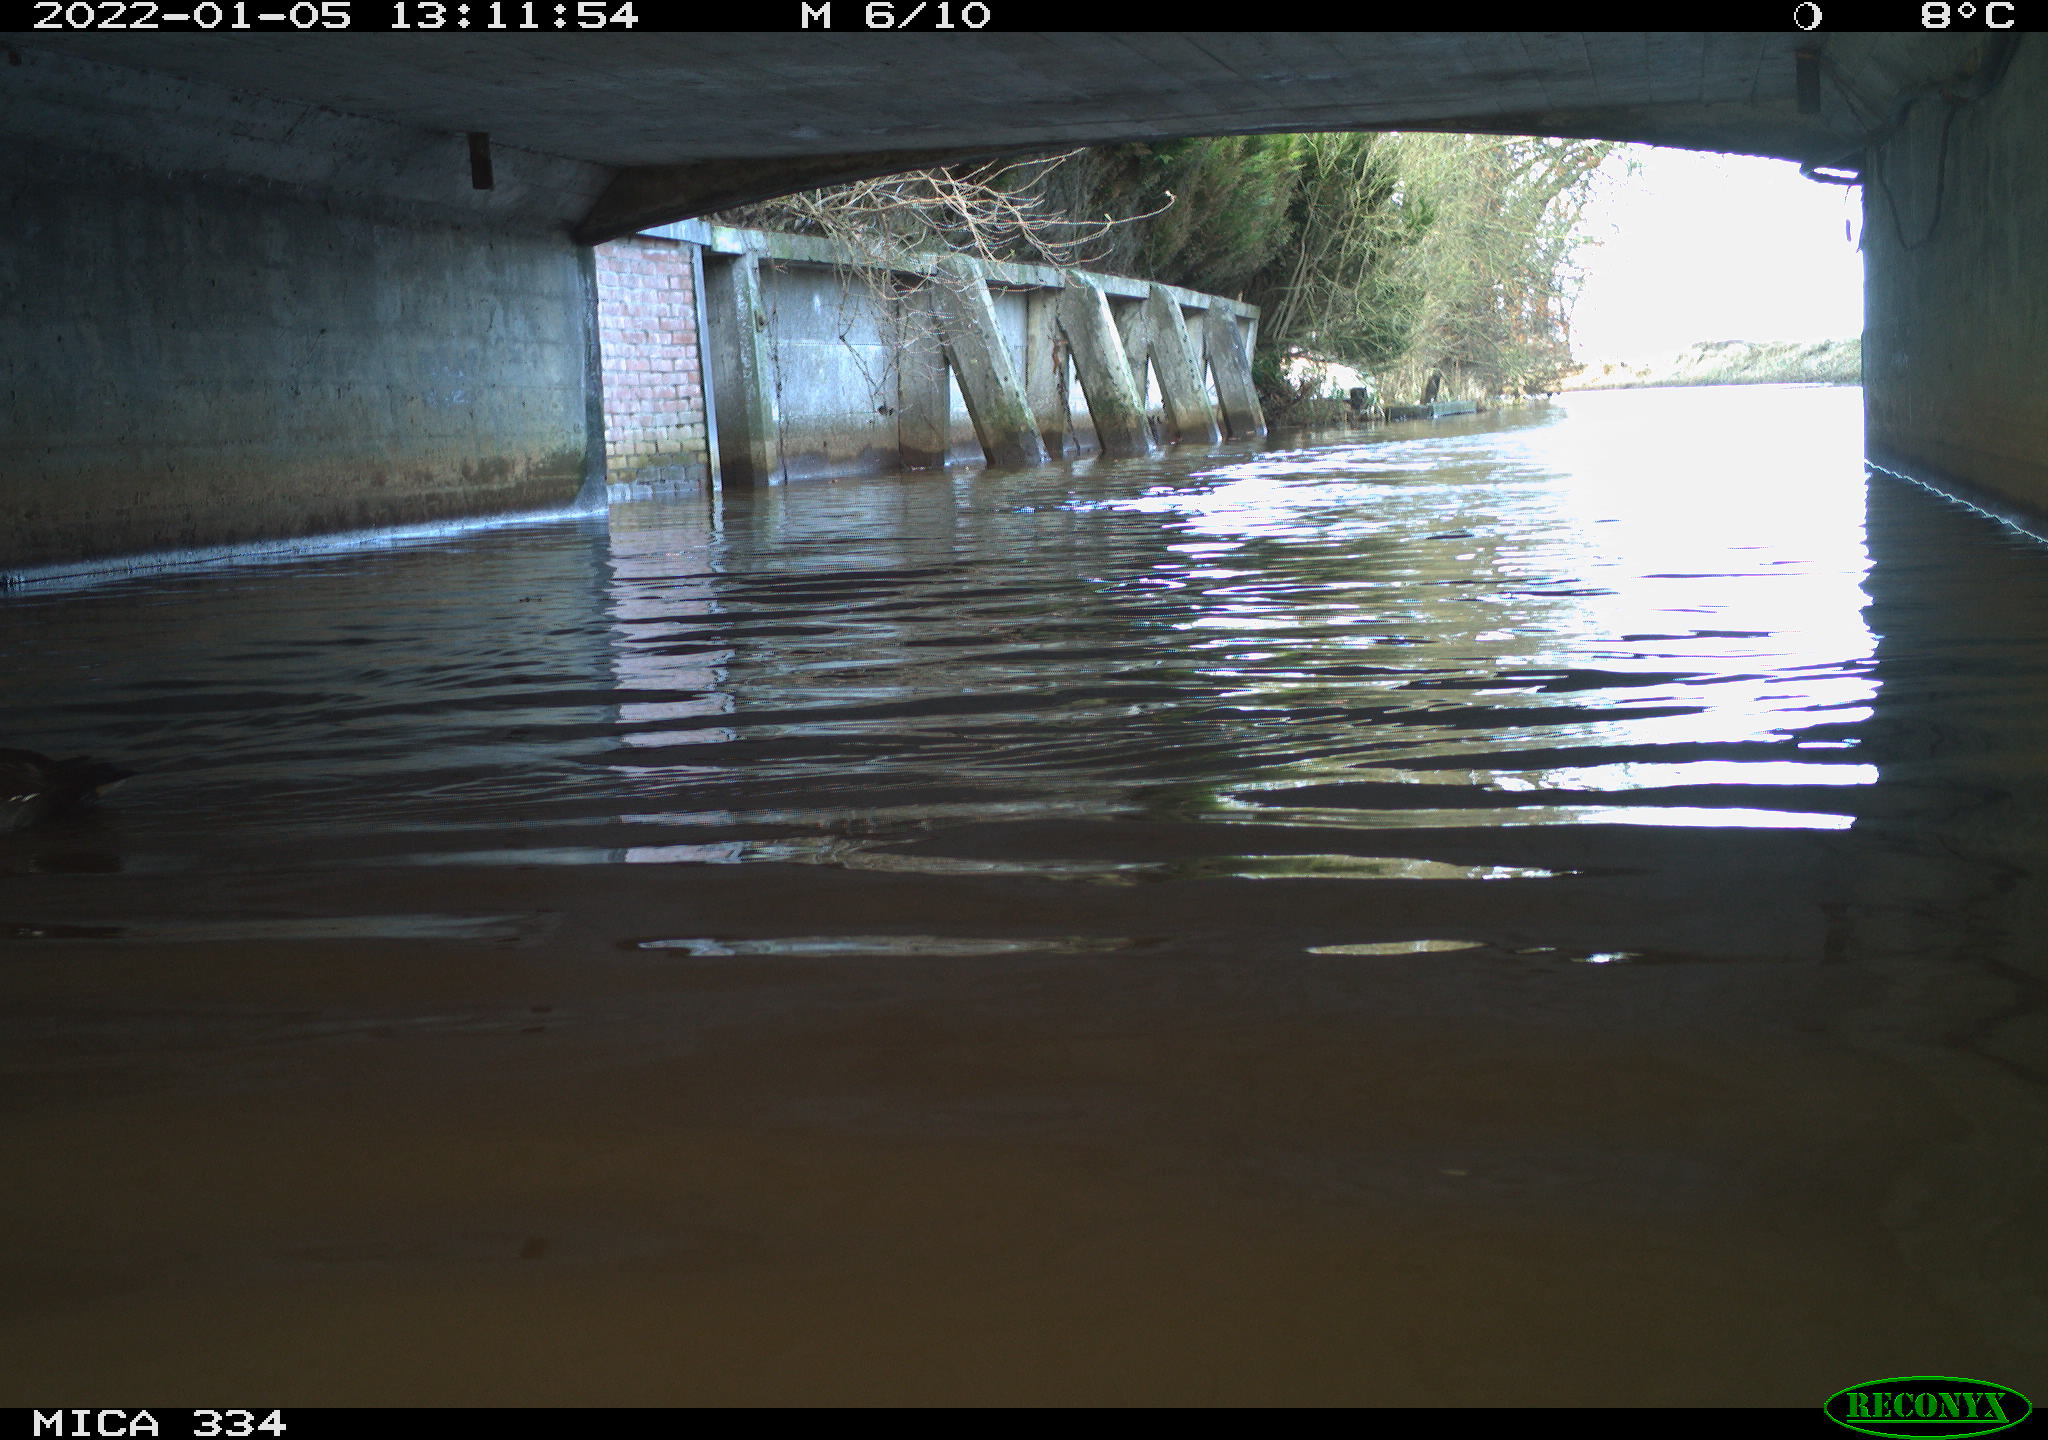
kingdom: Animalia
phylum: Chordata
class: Aves
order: Gruiformes
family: Rallidae
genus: Gallinula
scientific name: Gallinula chloropus
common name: Common moorhen
